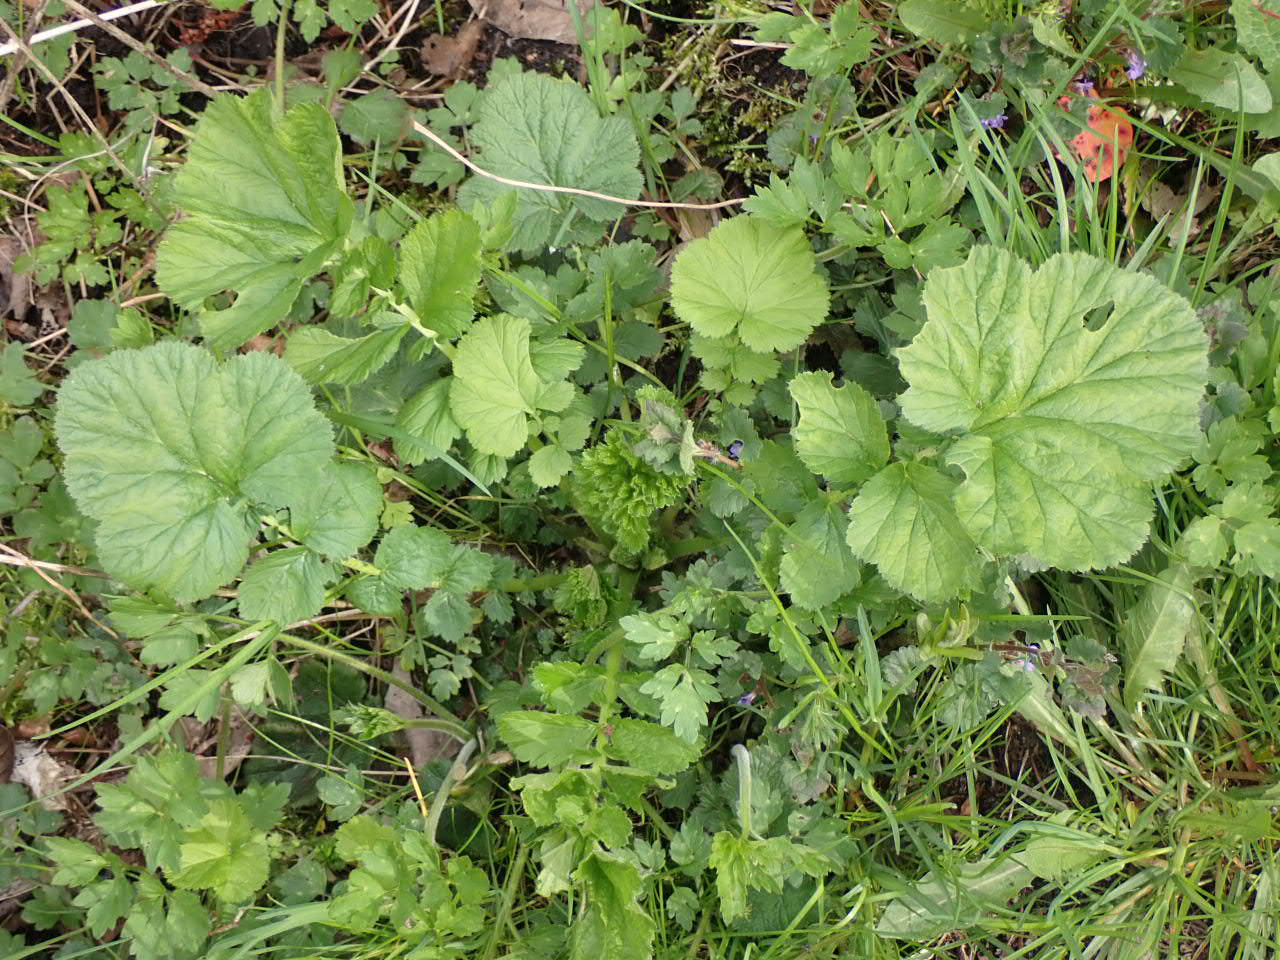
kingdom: Plantae
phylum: Tracheophyta
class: Magnoliopsida
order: Rosales
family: Rosaceae
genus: Geum
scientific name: Geum macrophyllum
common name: Amerikansk nellikerod
